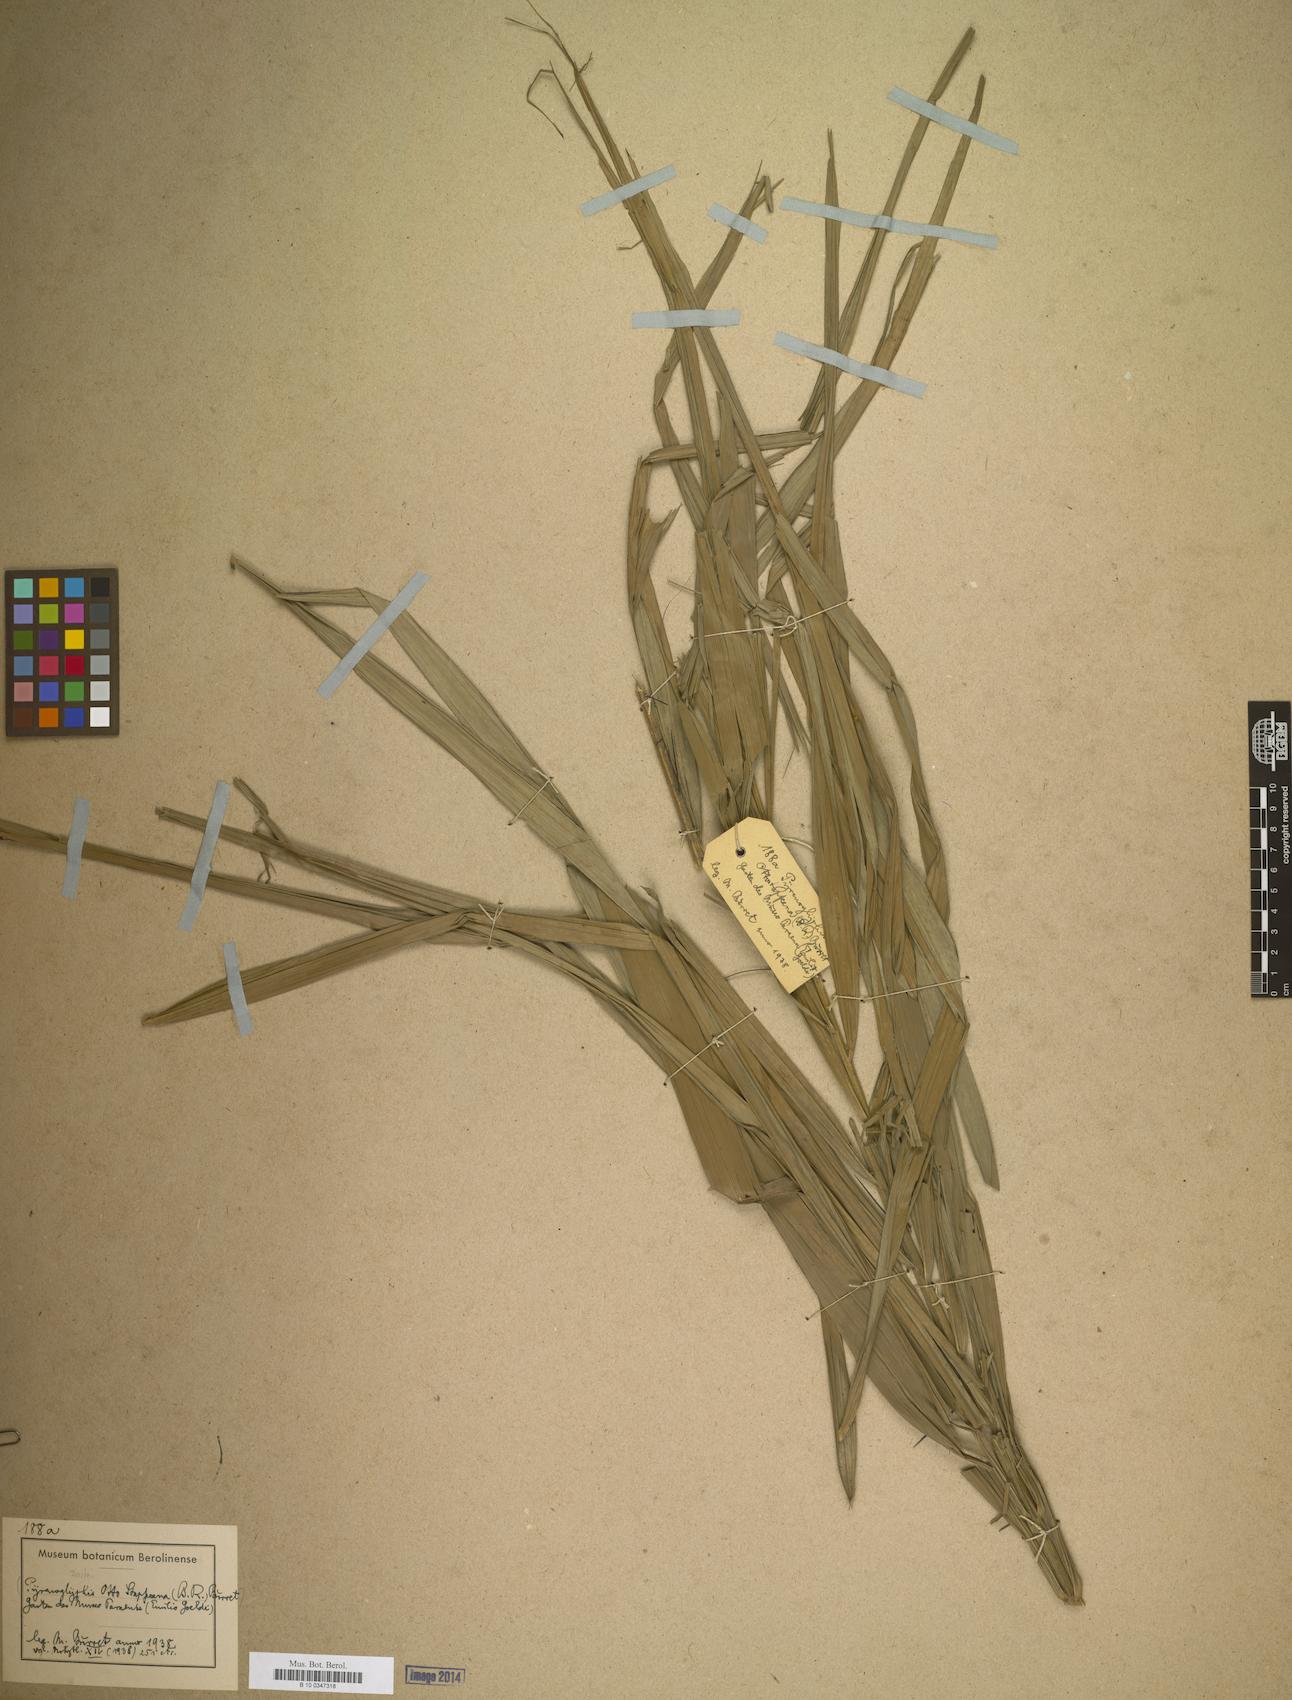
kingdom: Plantae
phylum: Tracheophyta
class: Liliopsida
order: Arecales
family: Arecaceae
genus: Bactris
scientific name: Bactris
